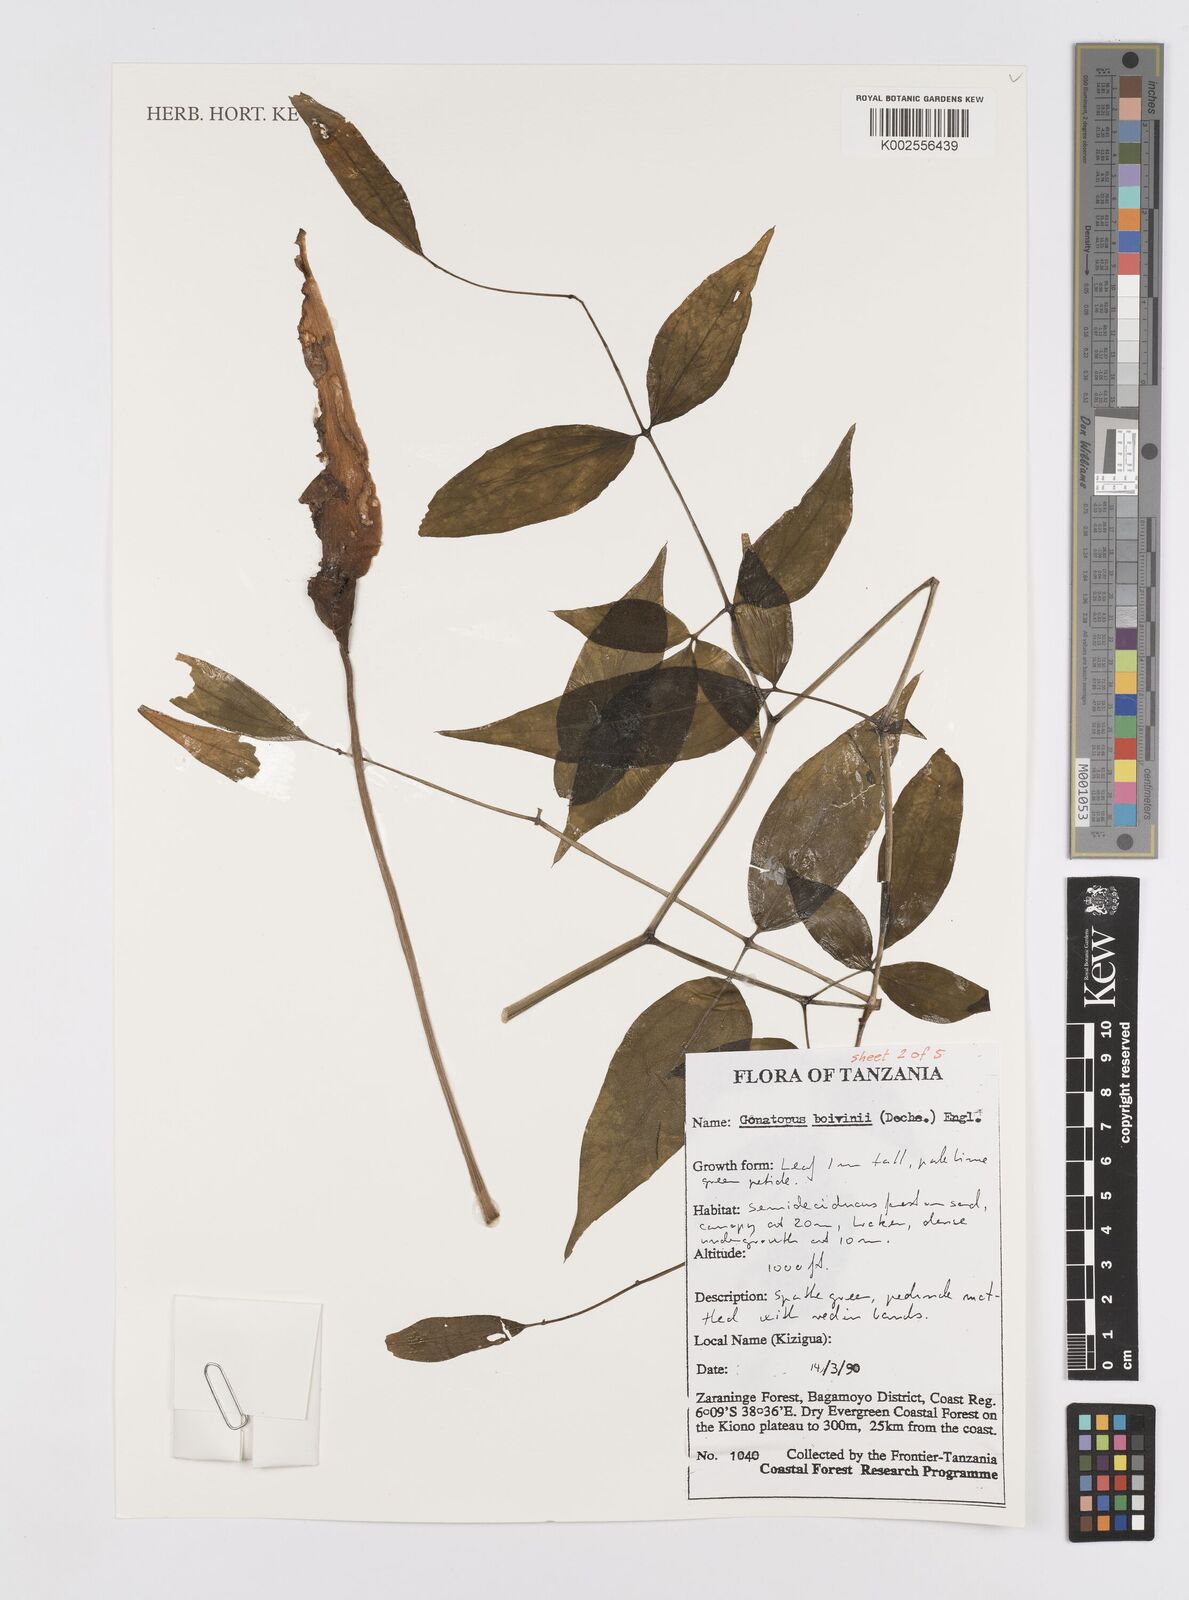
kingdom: Plantae
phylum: Tracheophyta
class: Liliopsida
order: Alismatales
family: Araceae
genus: Gonatopus
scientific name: Gonatopus boivinii
